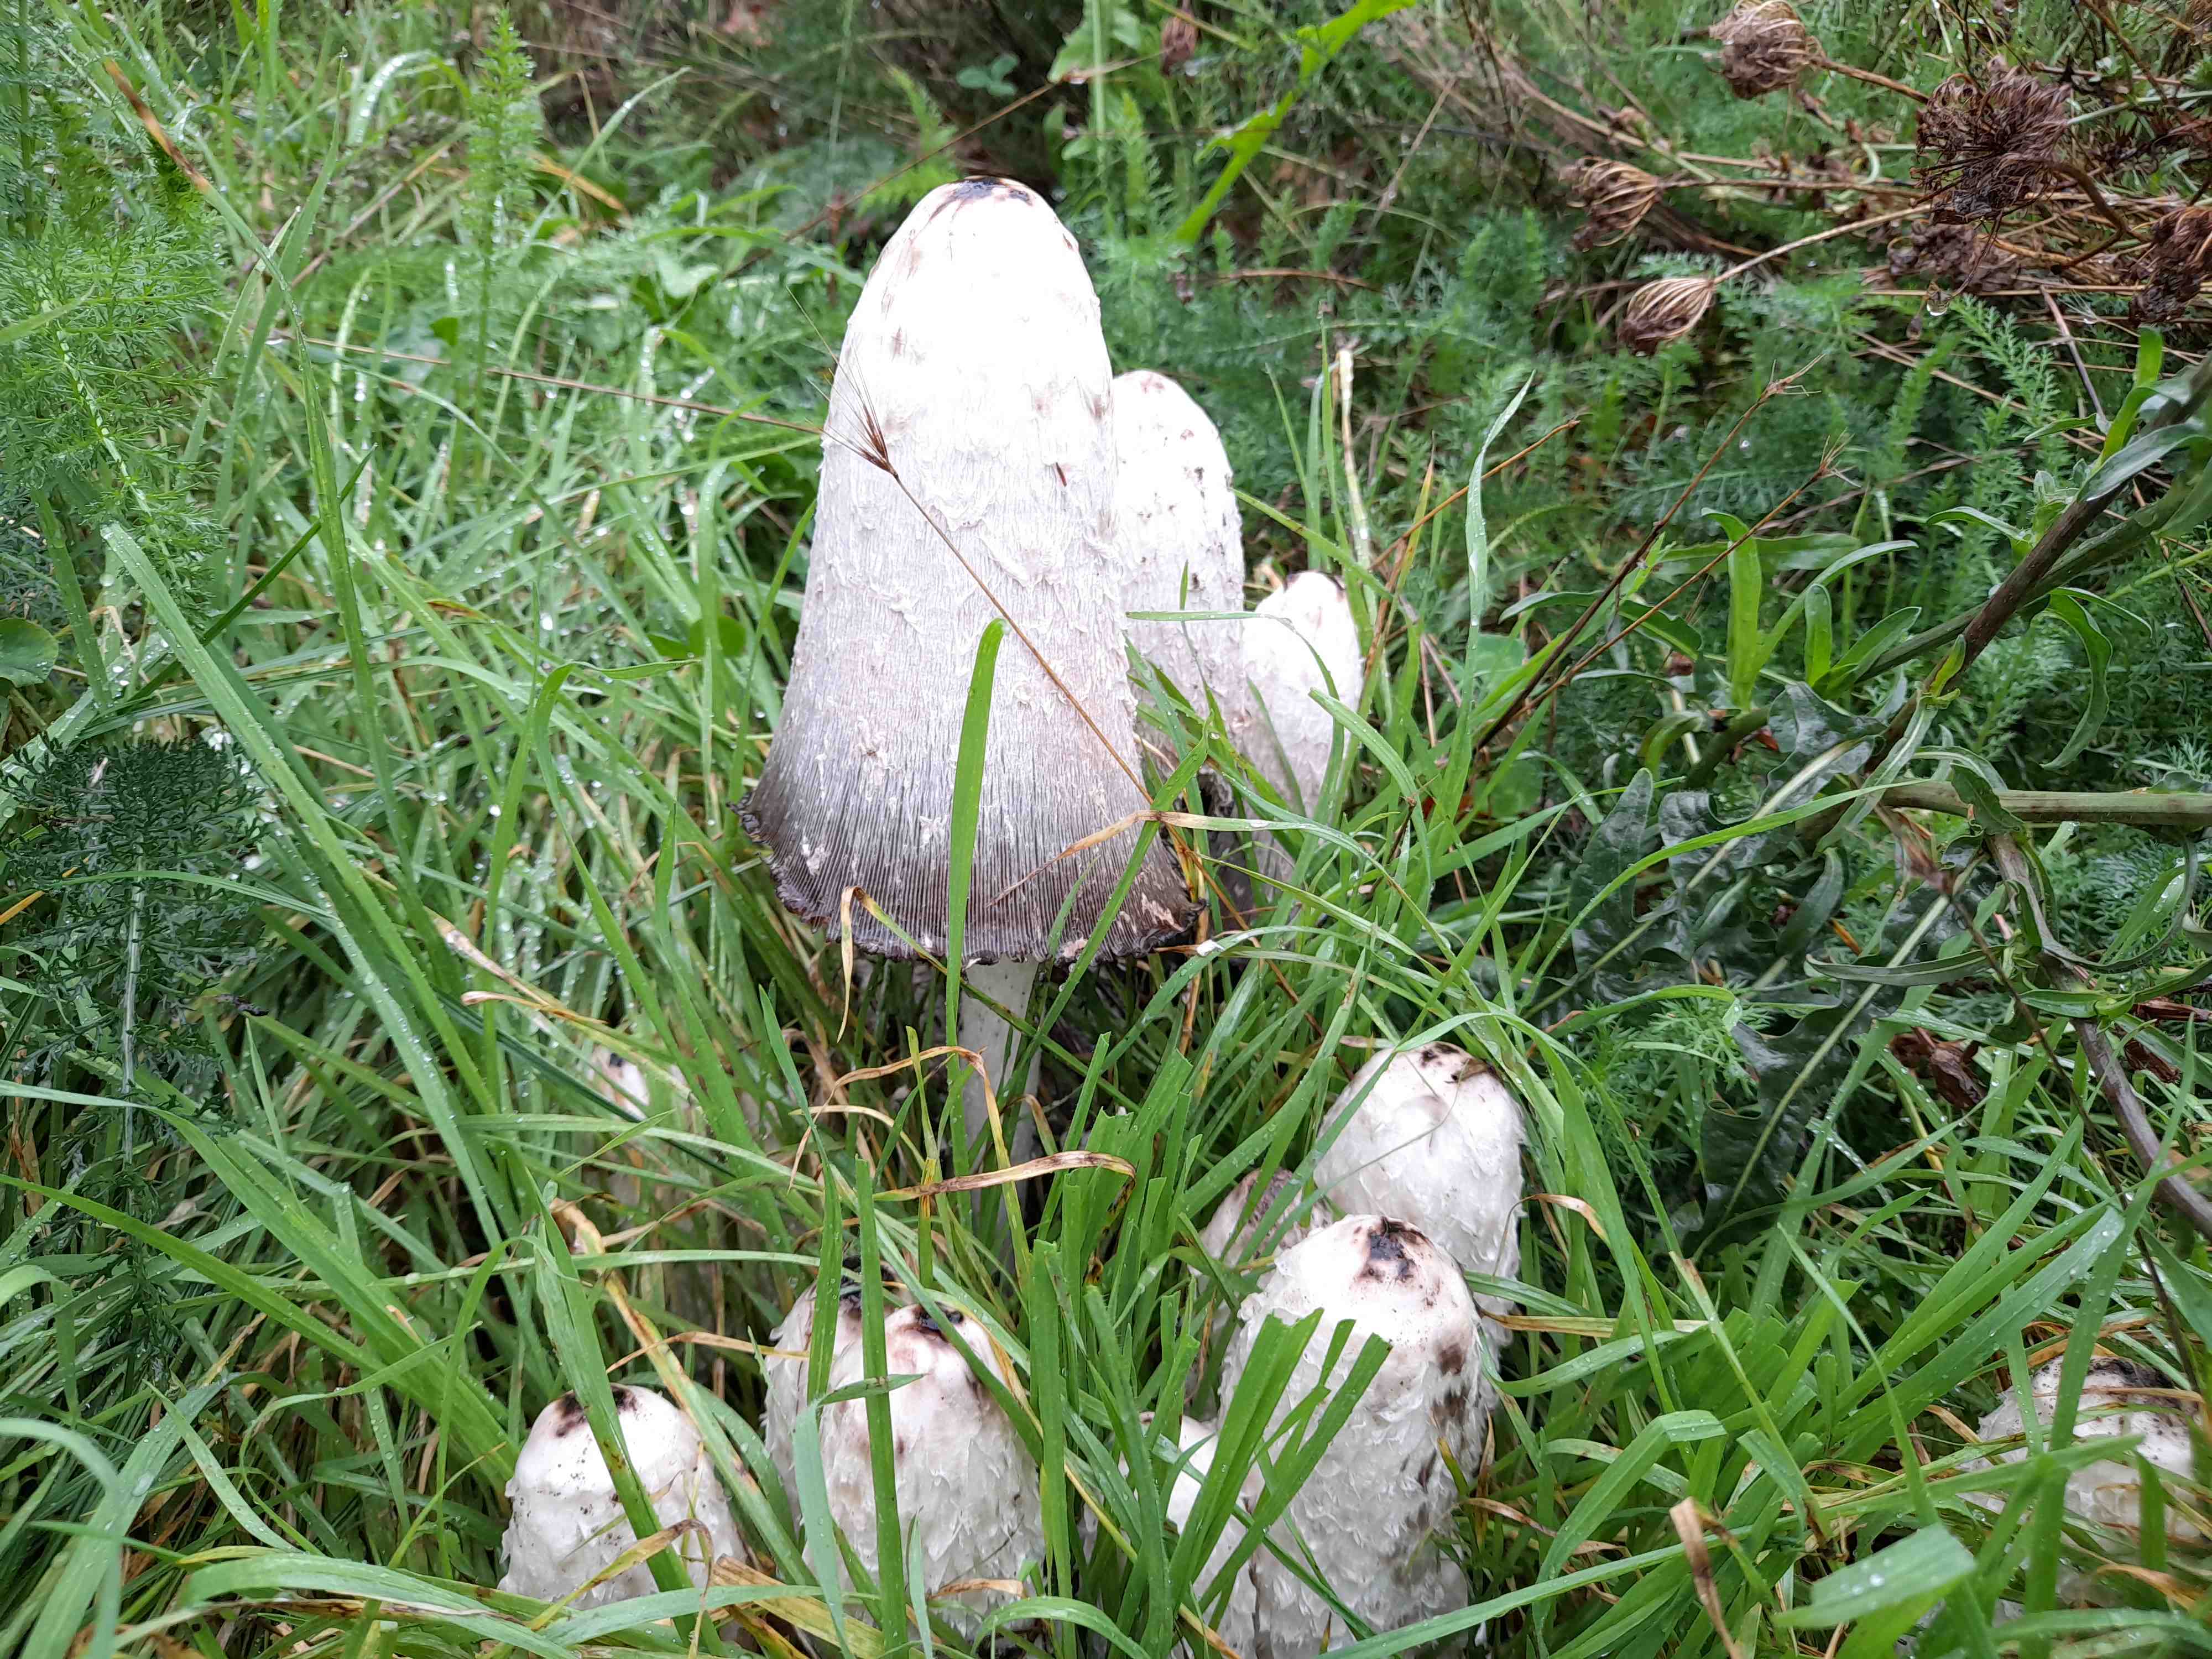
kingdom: Fungi
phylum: Basidiomycota
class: Agaricomycetes
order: Agaricales
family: Agaricaceae
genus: Coprinus
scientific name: Coprinus comatus
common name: stor parykhat
